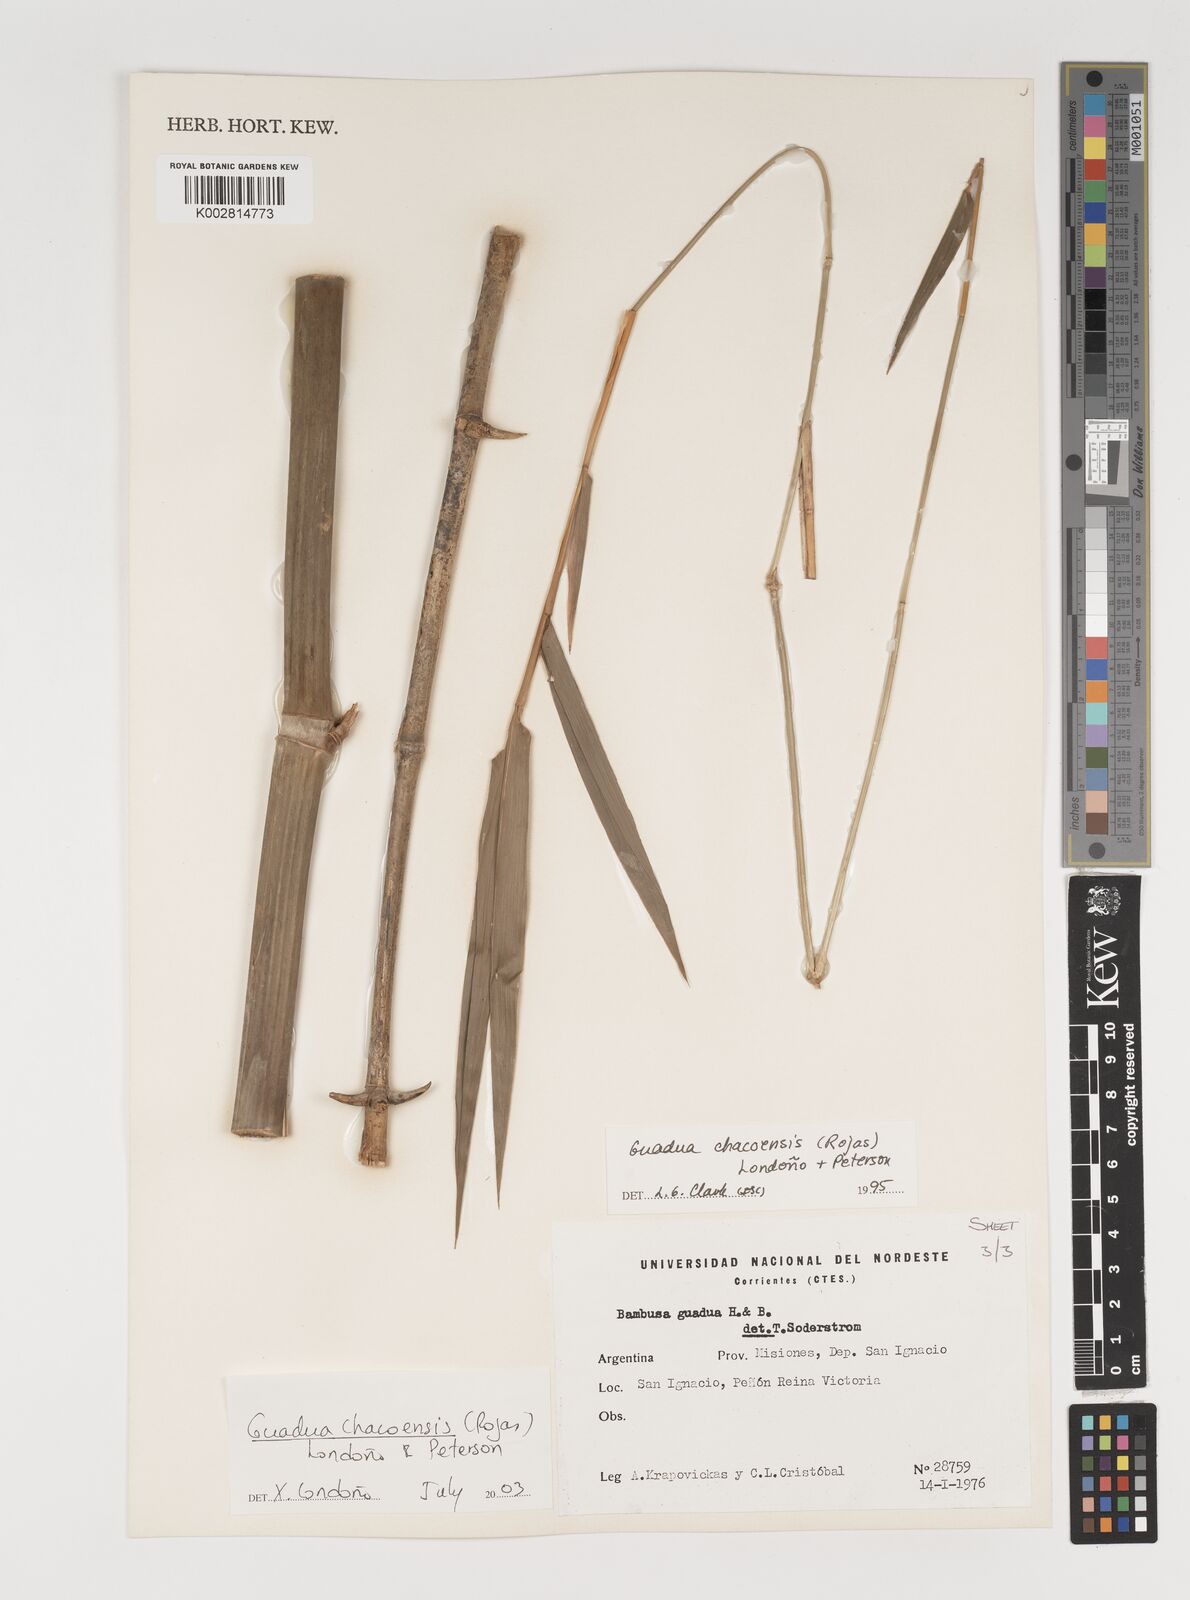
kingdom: Plantae
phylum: Tracheophyta
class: Liliopsida
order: Poales
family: Poaceae
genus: Guadua
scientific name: Guadua chacoensis
